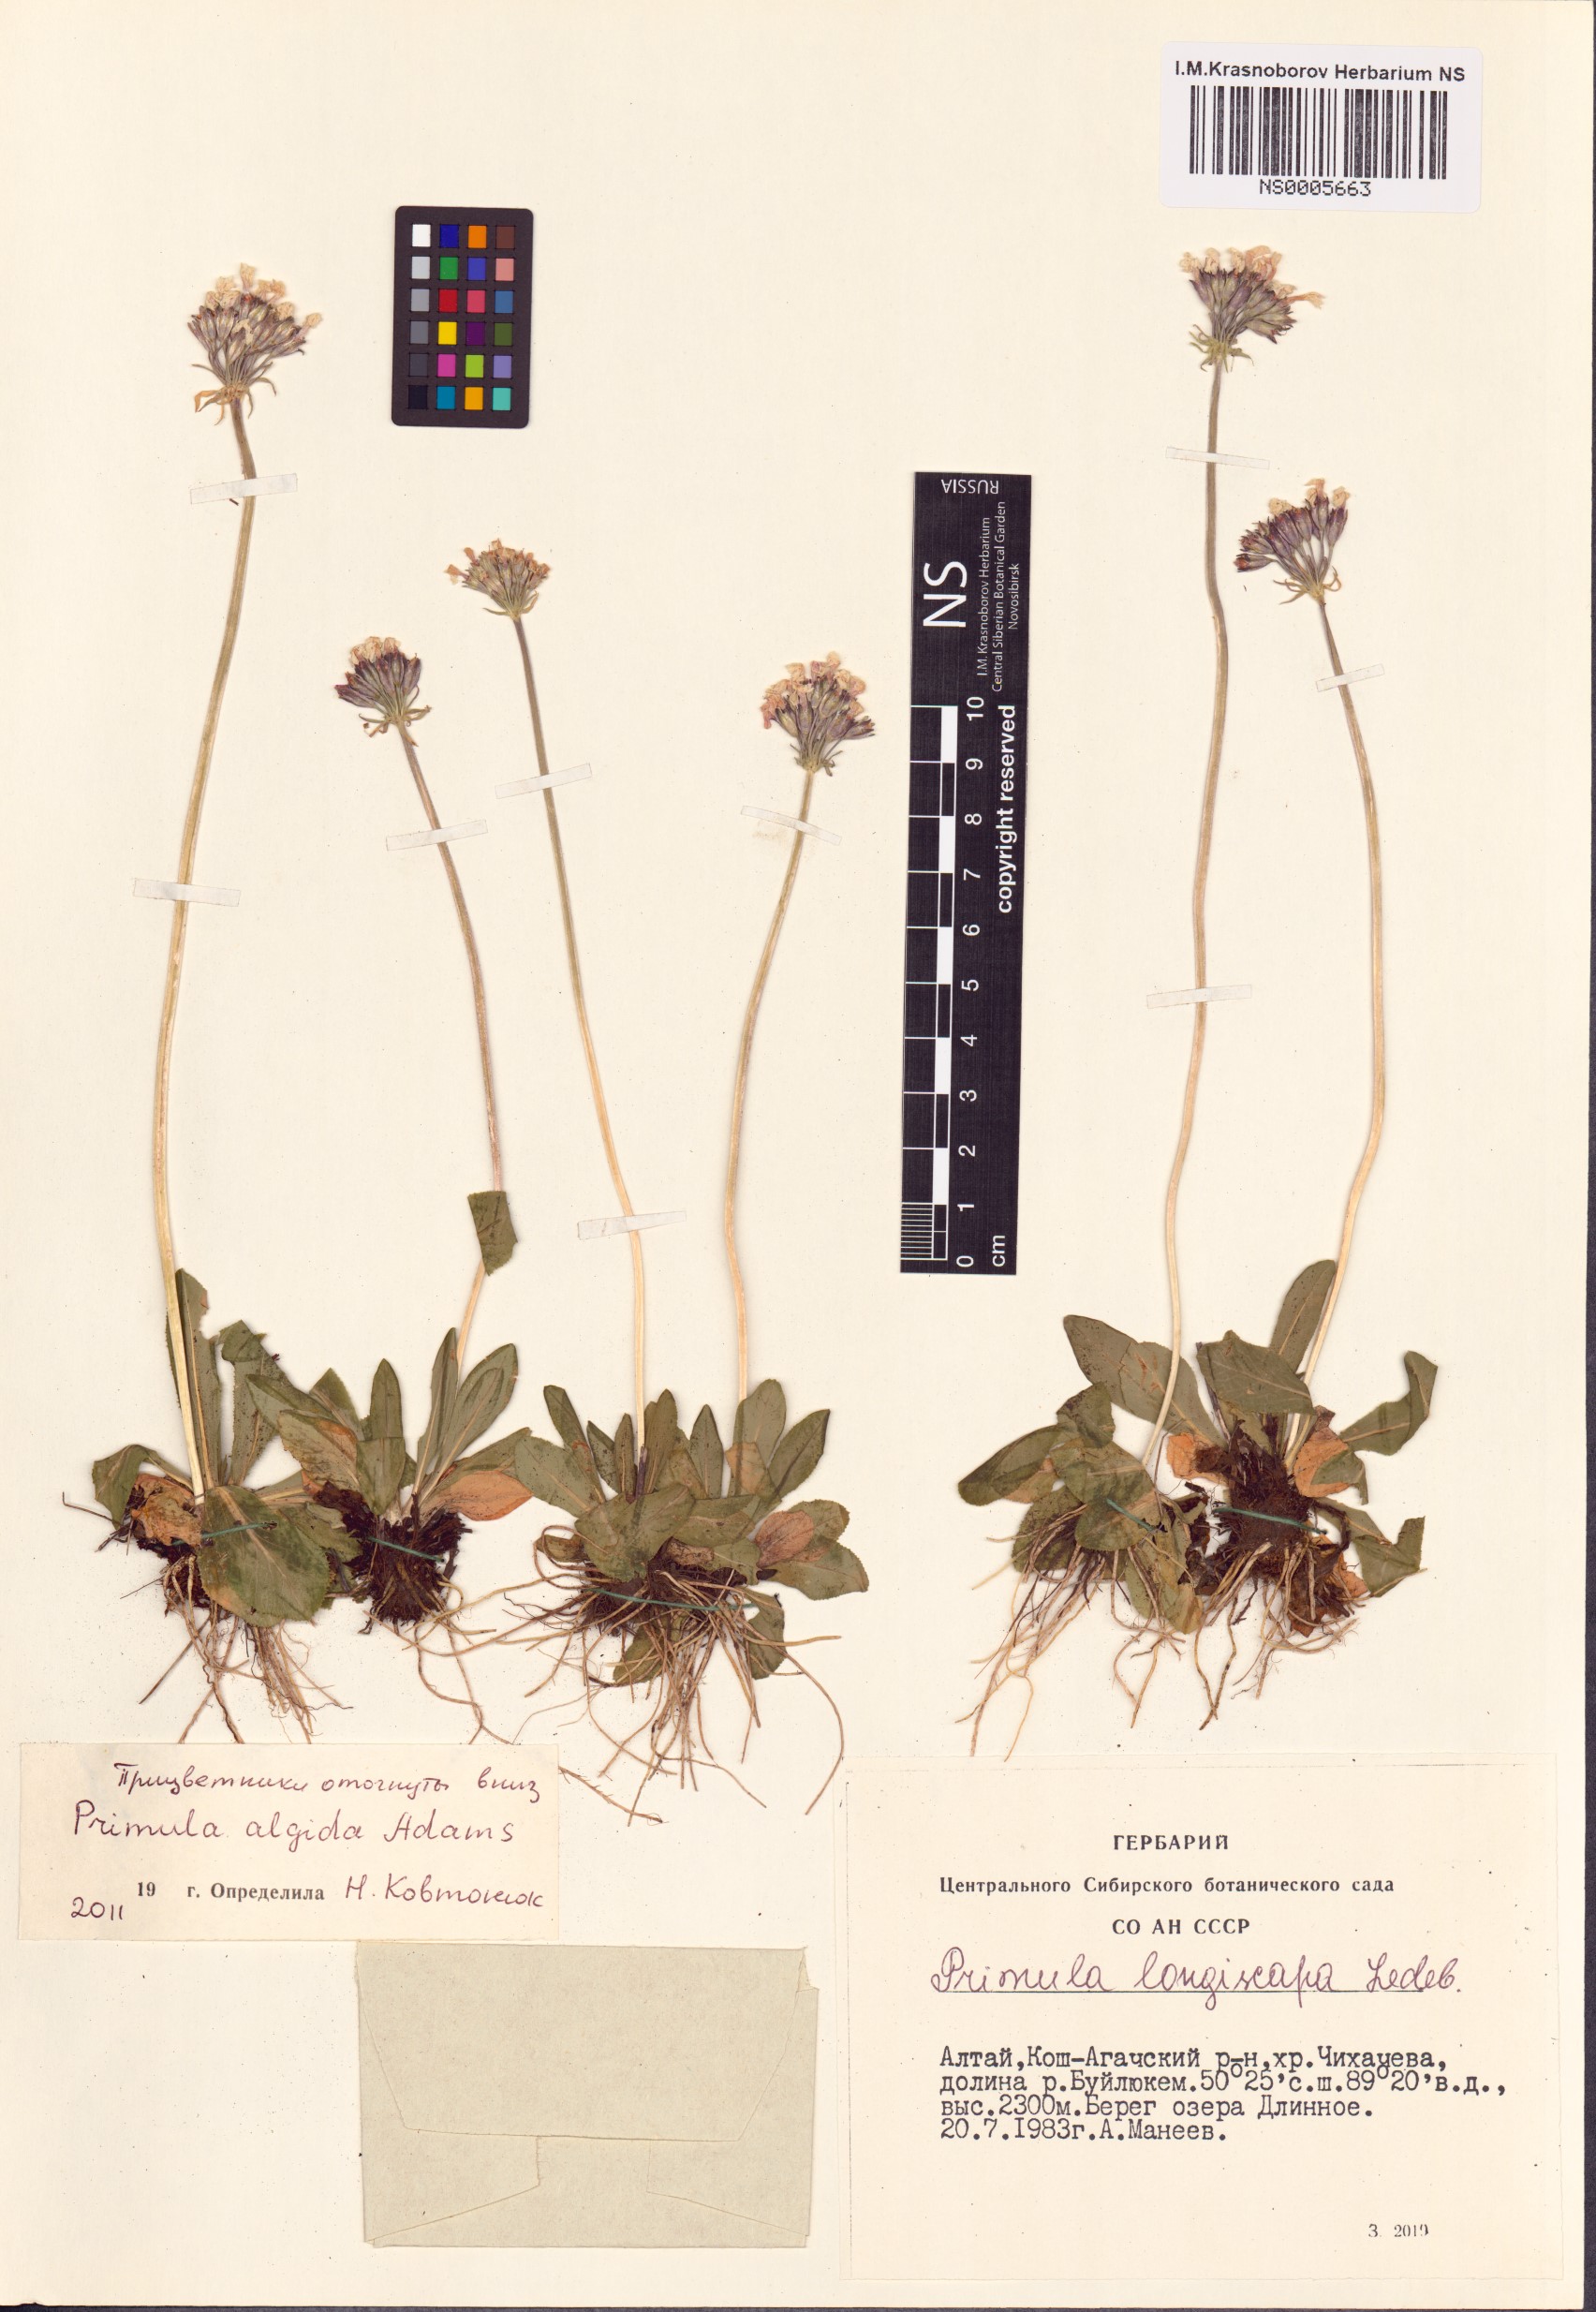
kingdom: Plantae
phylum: Tracheophyta
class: Magnoliopsida
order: Ericales
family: Primulaceae
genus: Primula
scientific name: Primula algida
